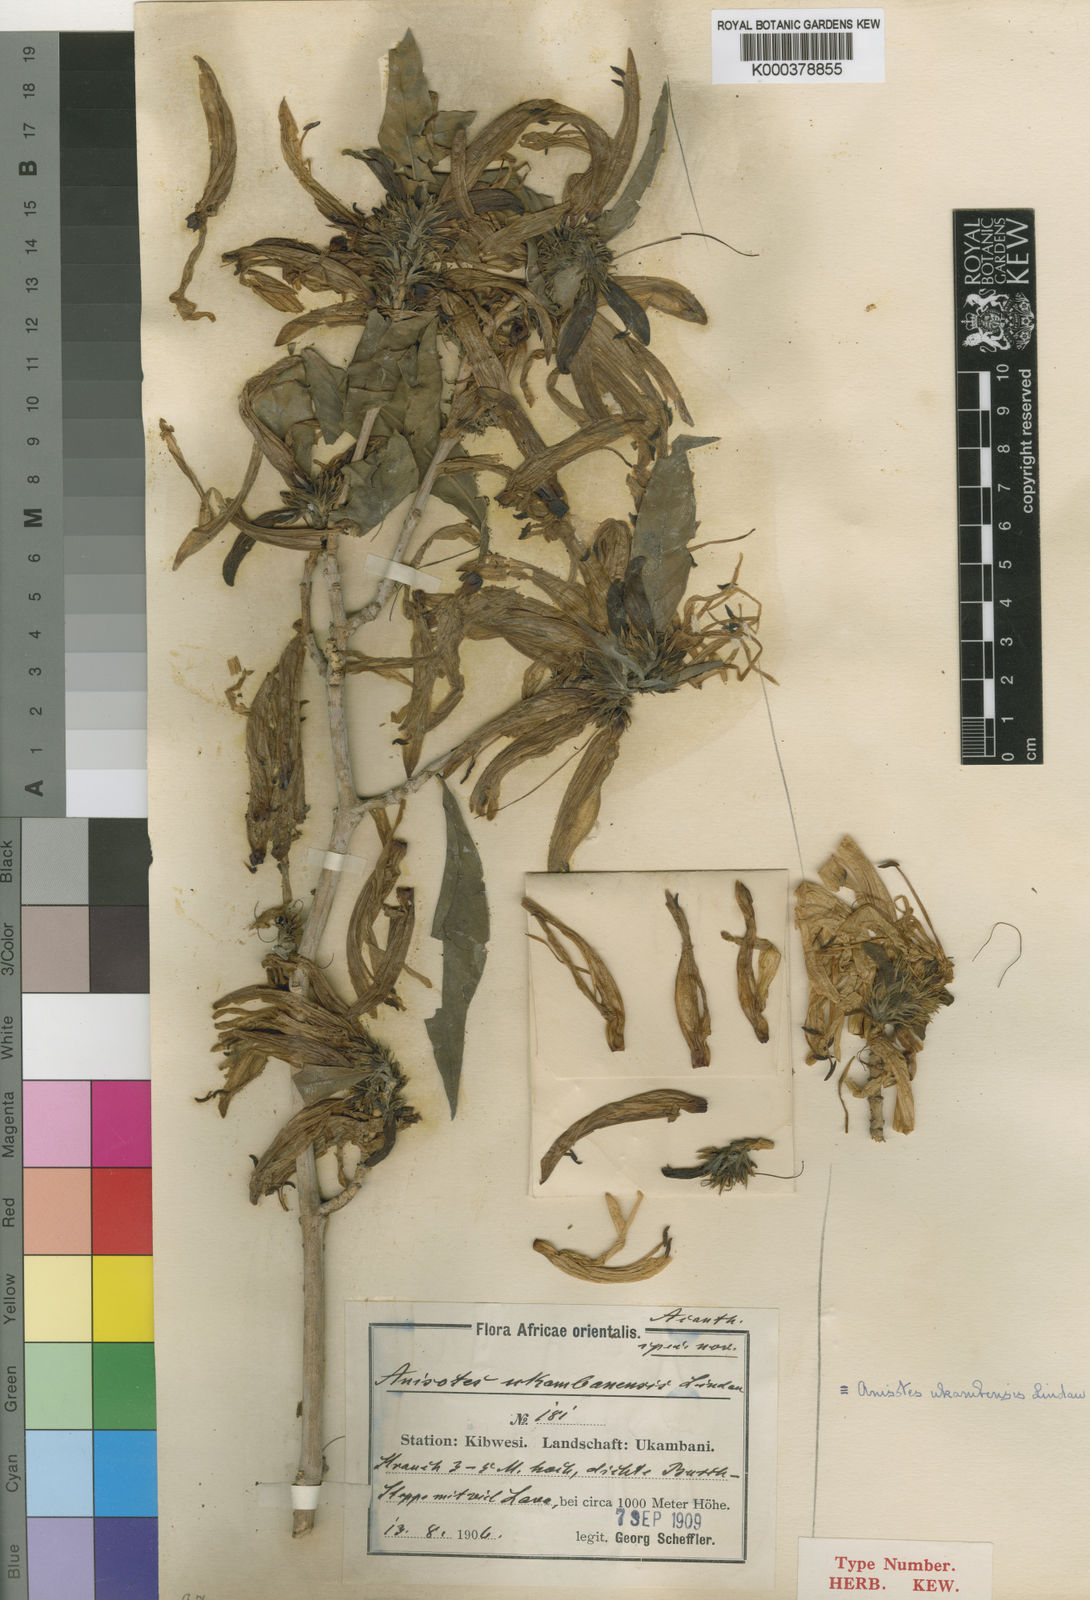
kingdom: Plantae
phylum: Tracheophyta
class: Magnoliopsida
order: Lamiales
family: Acanthaceae
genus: Anisotes
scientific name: Anisotes ukambensis
